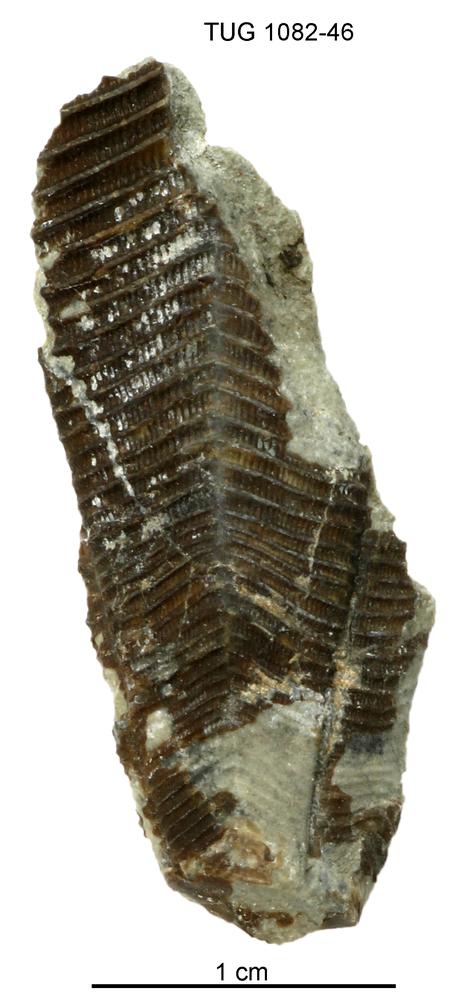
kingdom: Animalia
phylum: Cnidaria
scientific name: Cnidaria
